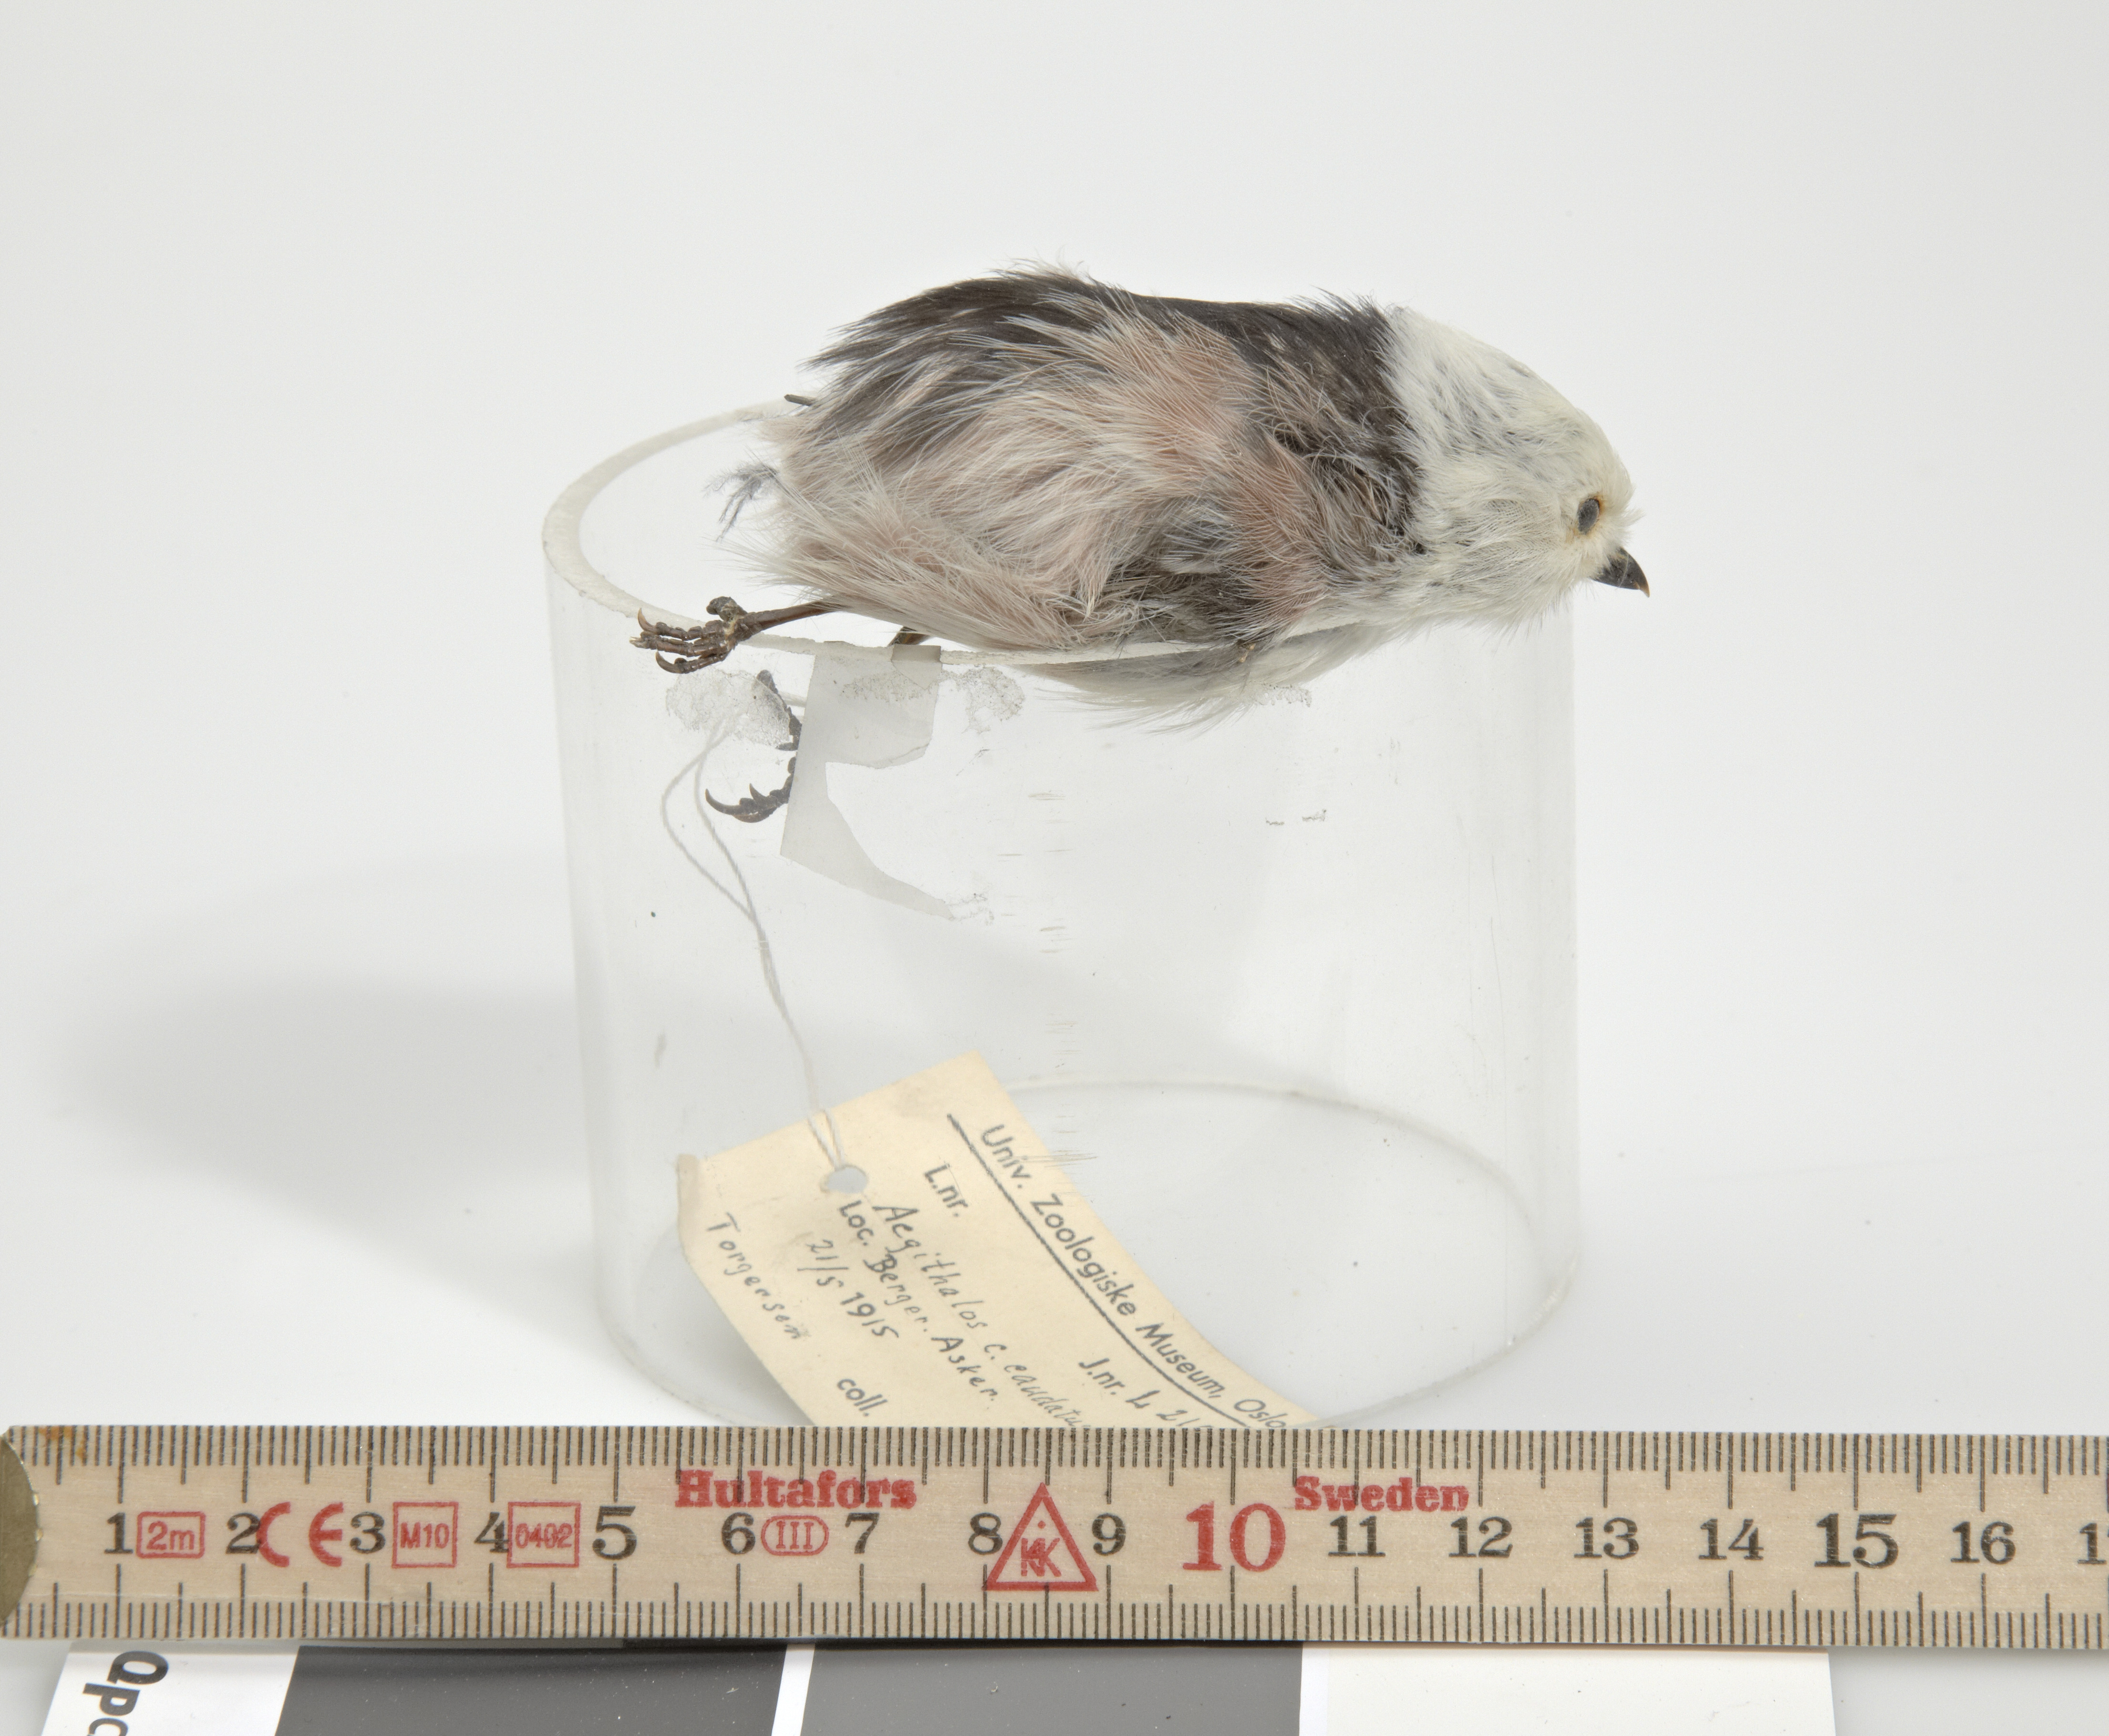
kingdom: Animalia
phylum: Chordata
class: Aves
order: Passeriformes
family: Aegithalidae
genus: Aegithalos
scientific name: Aegithalos caudatus
